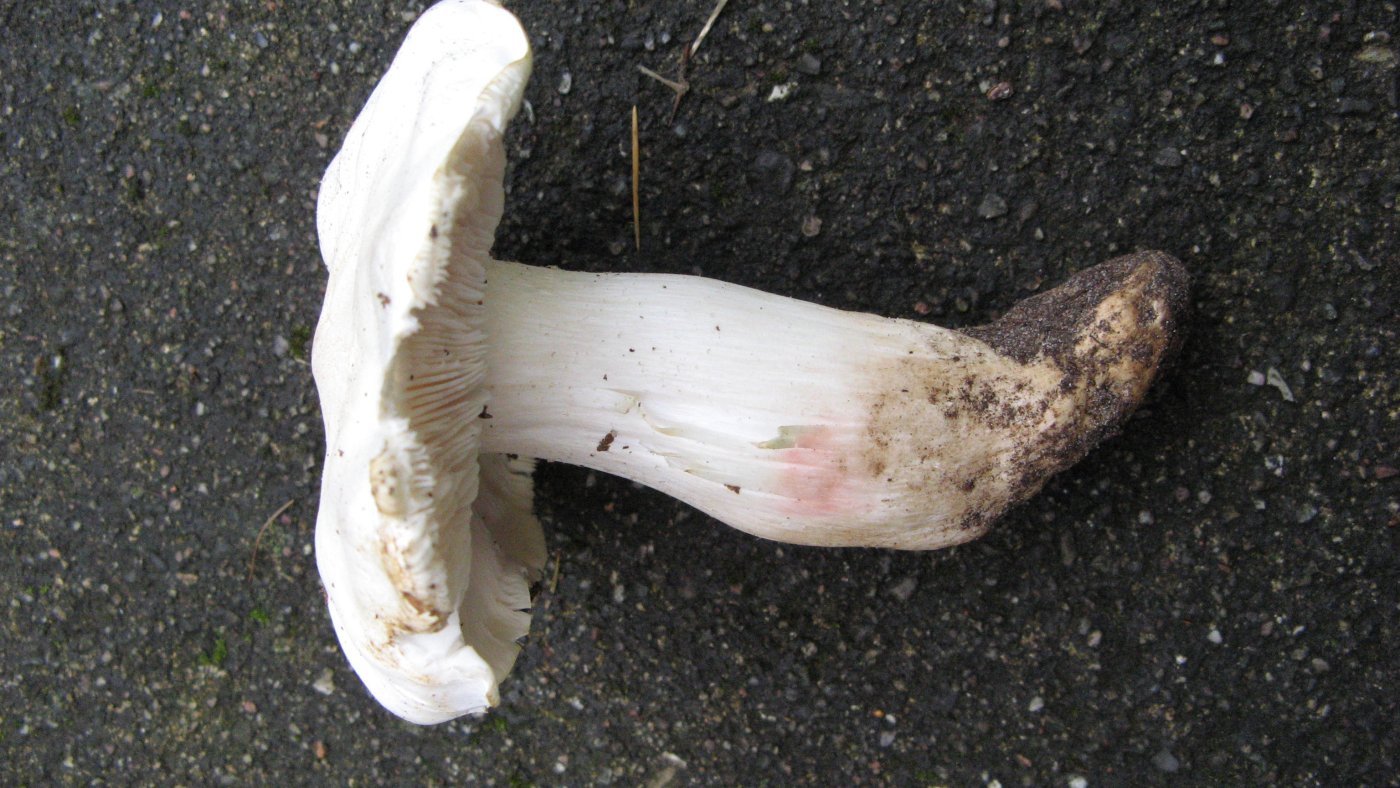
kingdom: Fungi
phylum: Basidiomycota
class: Agaricomycetes
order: Agaricales
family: Tricholomataceae
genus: Tricholoma
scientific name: Tricholoma columbetta
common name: silke-ridderhat
